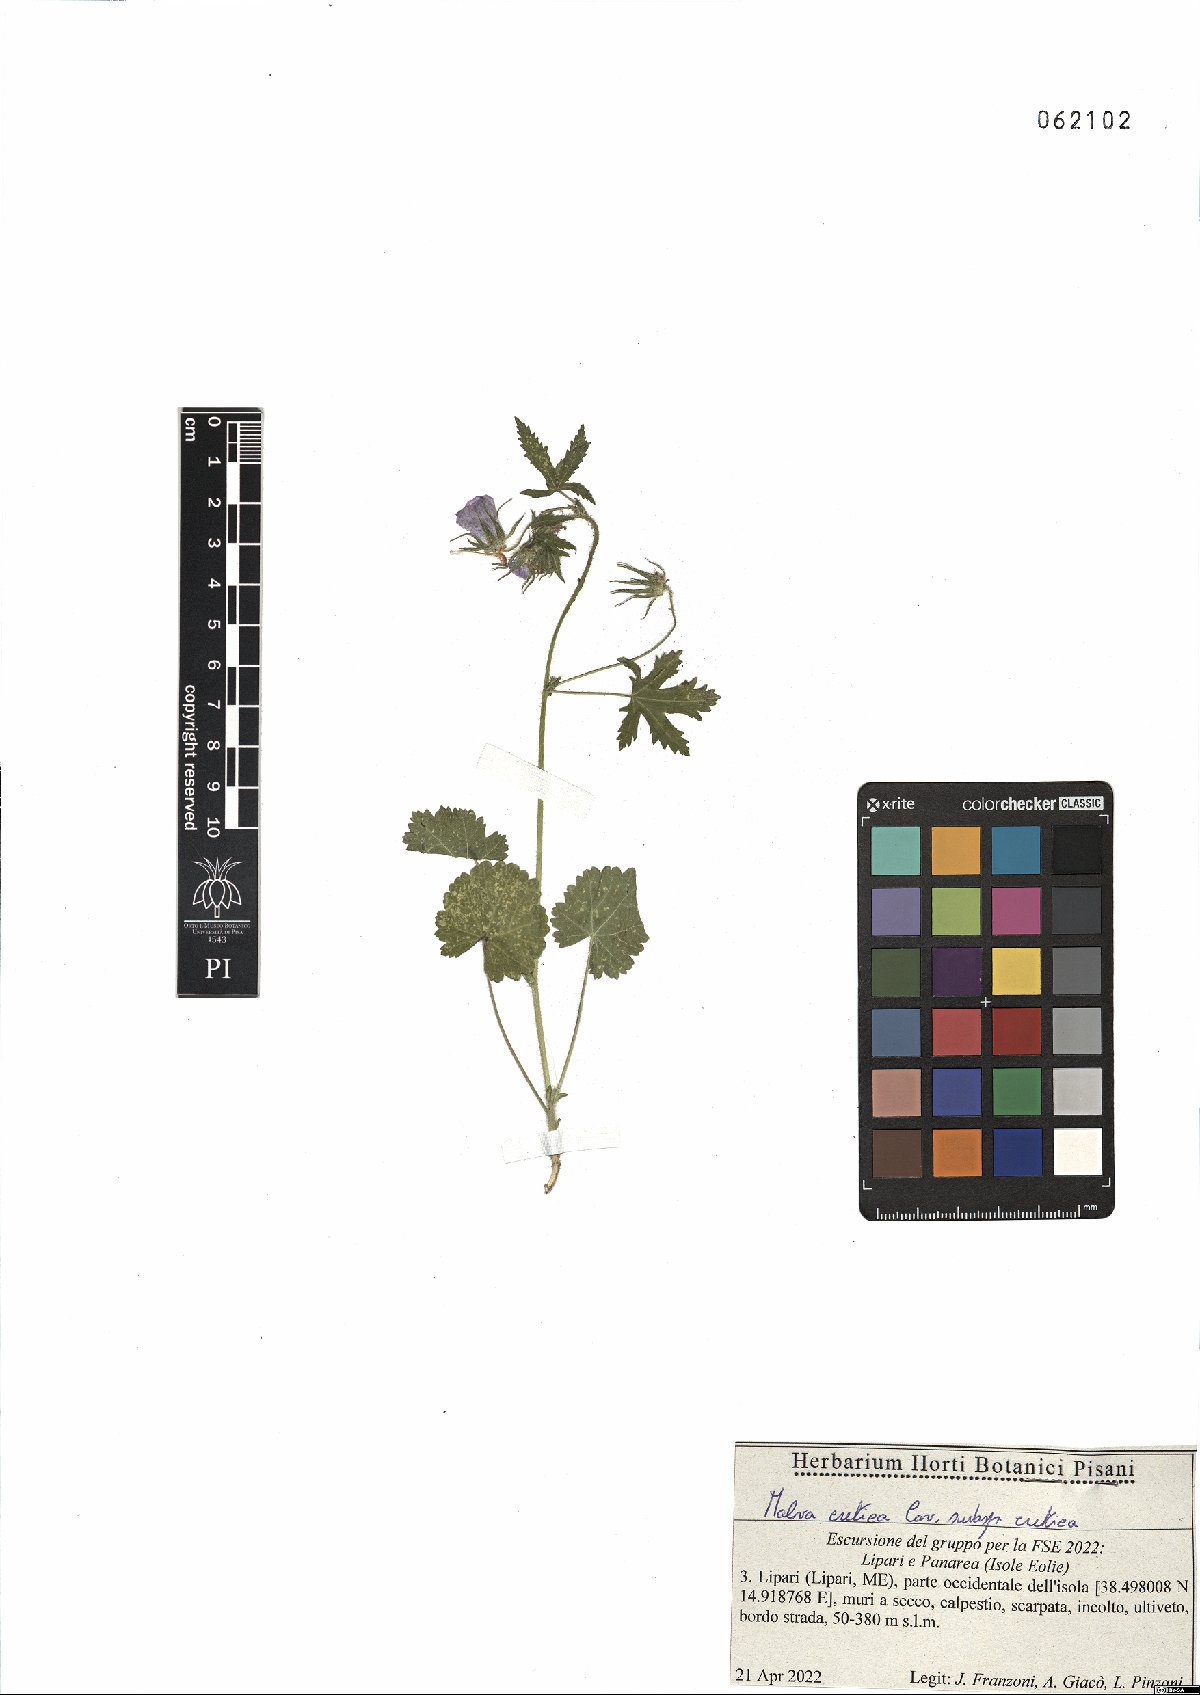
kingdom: Plantae
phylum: Tracheophyta
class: Magnoliopsida
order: Malvales
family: Malvaceae
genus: Malva
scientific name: Malva cretica
